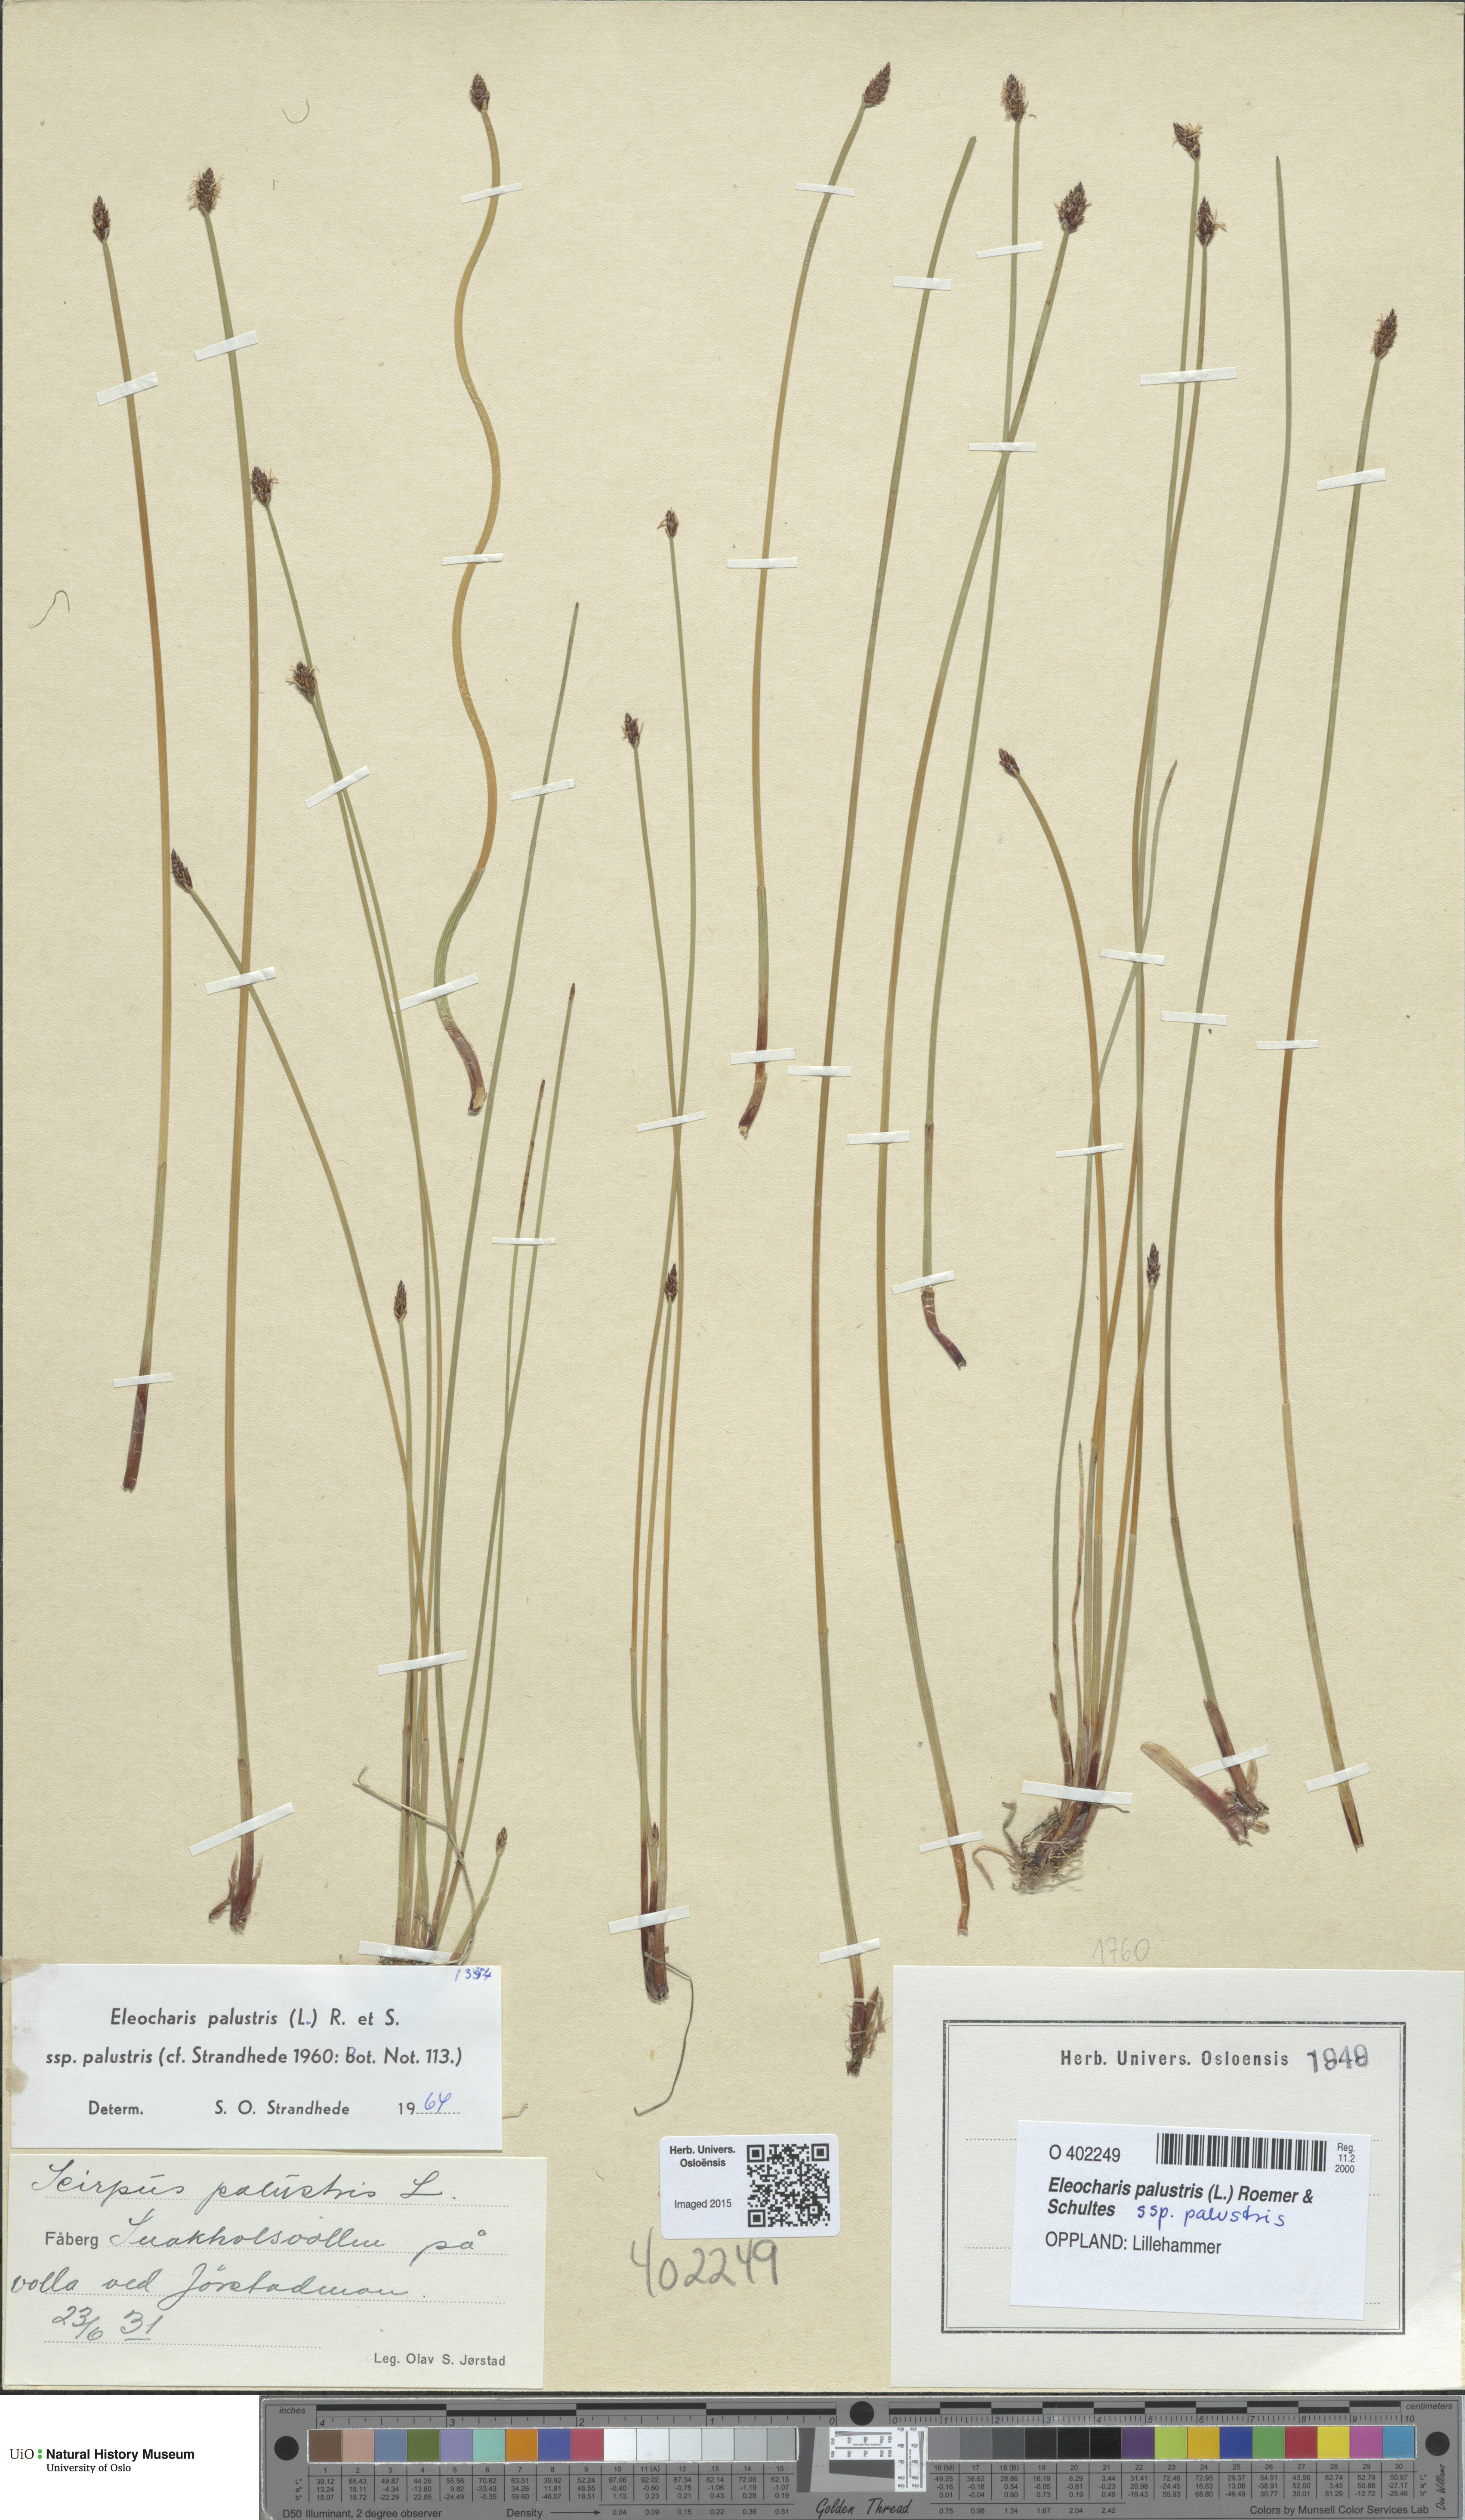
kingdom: Plantae
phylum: Tracheophyta
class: Liliopsida
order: Poales
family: Cyperaceae
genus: Eleocharis
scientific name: Eleocharis palustris
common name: Common spike-rush
